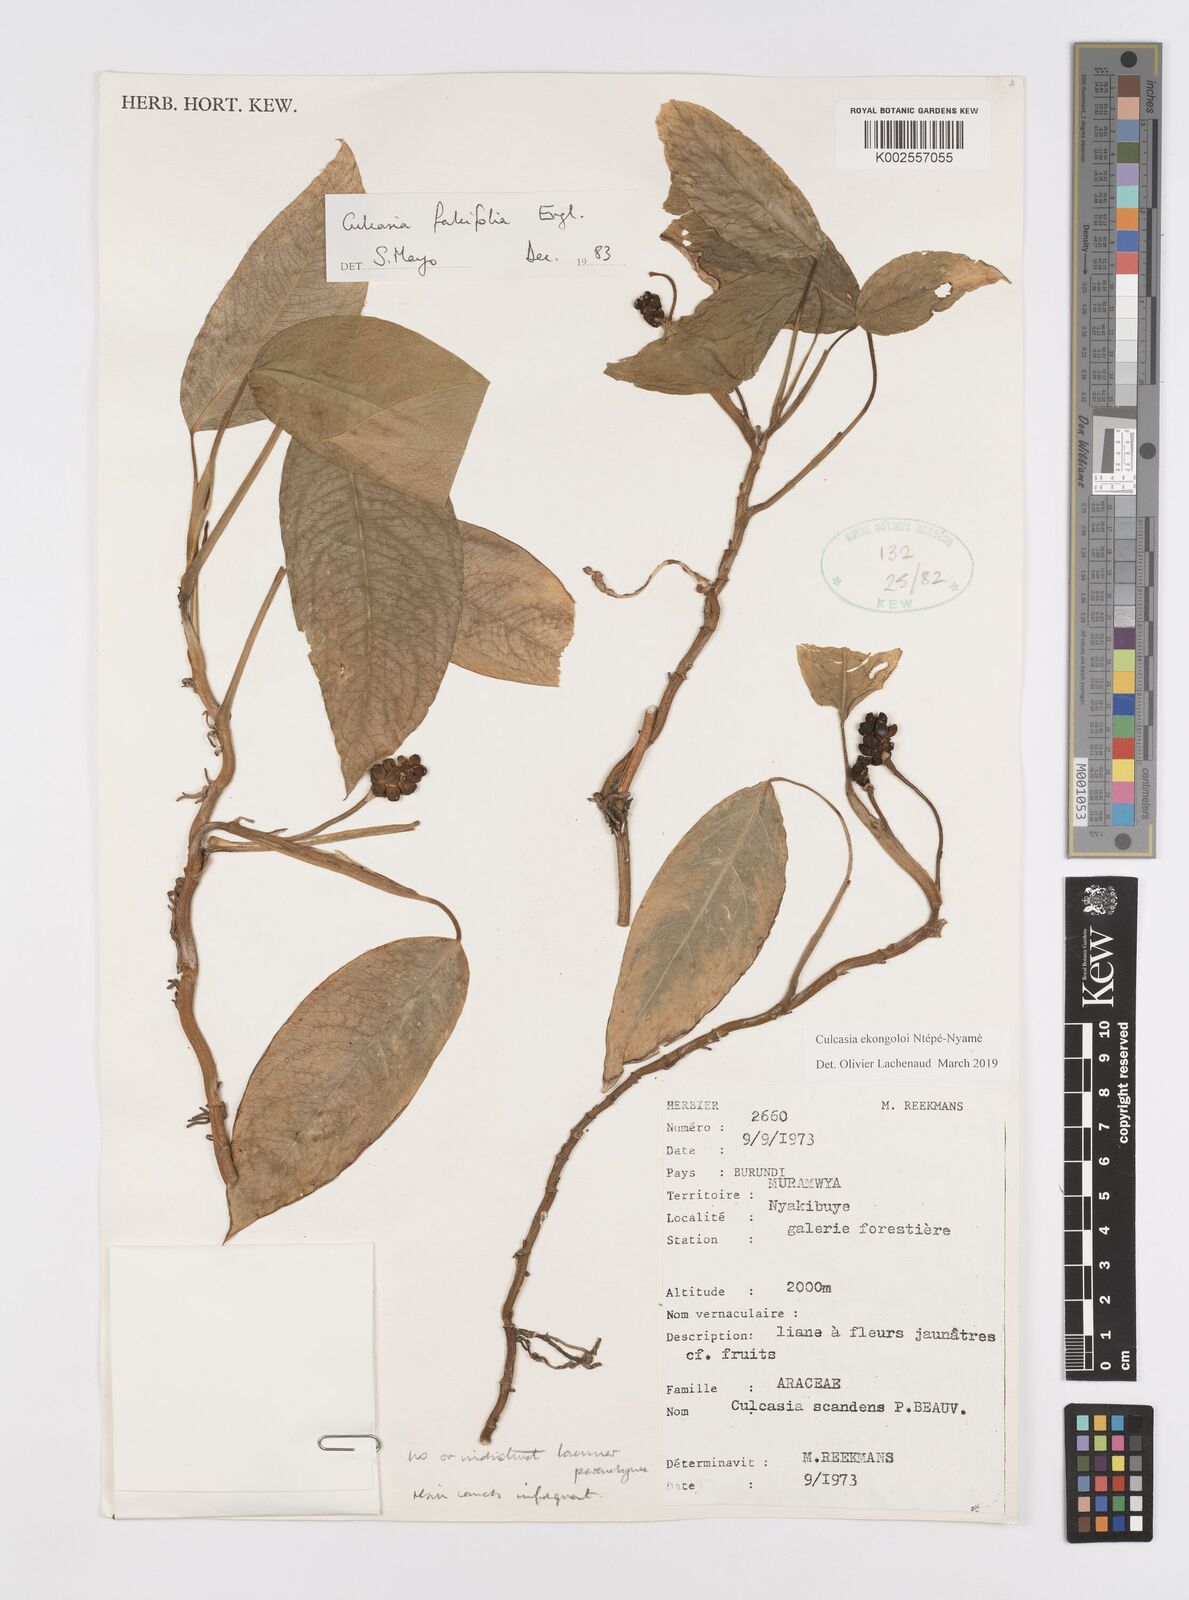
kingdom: Plantae
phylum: Tracheophyta
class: Liliopsida
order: Alismatales
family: Araceae
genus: Culcasia
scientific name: Culcasia ekongoloi
